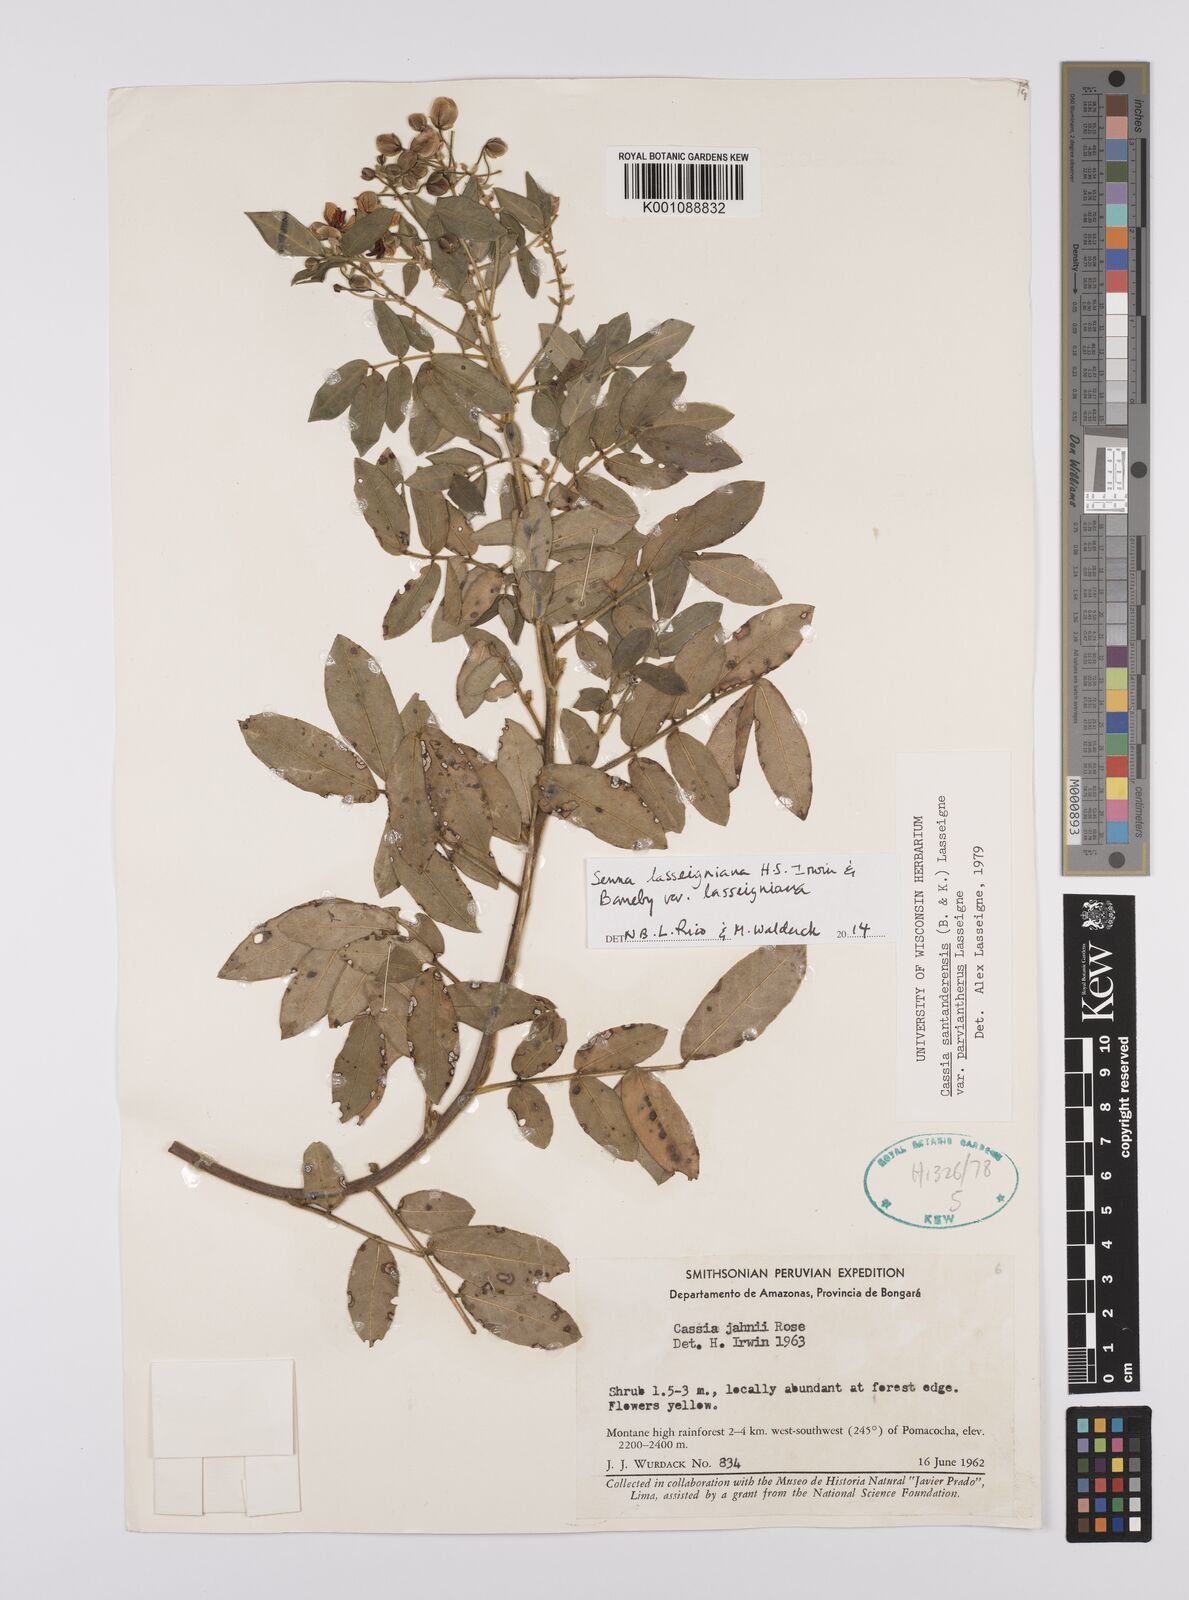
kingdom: Plantae
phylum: Tracheophyta
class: Magnoliopsida
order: Fabales
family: Fabaceae
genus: Senna
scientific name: Senna lasseigniana
